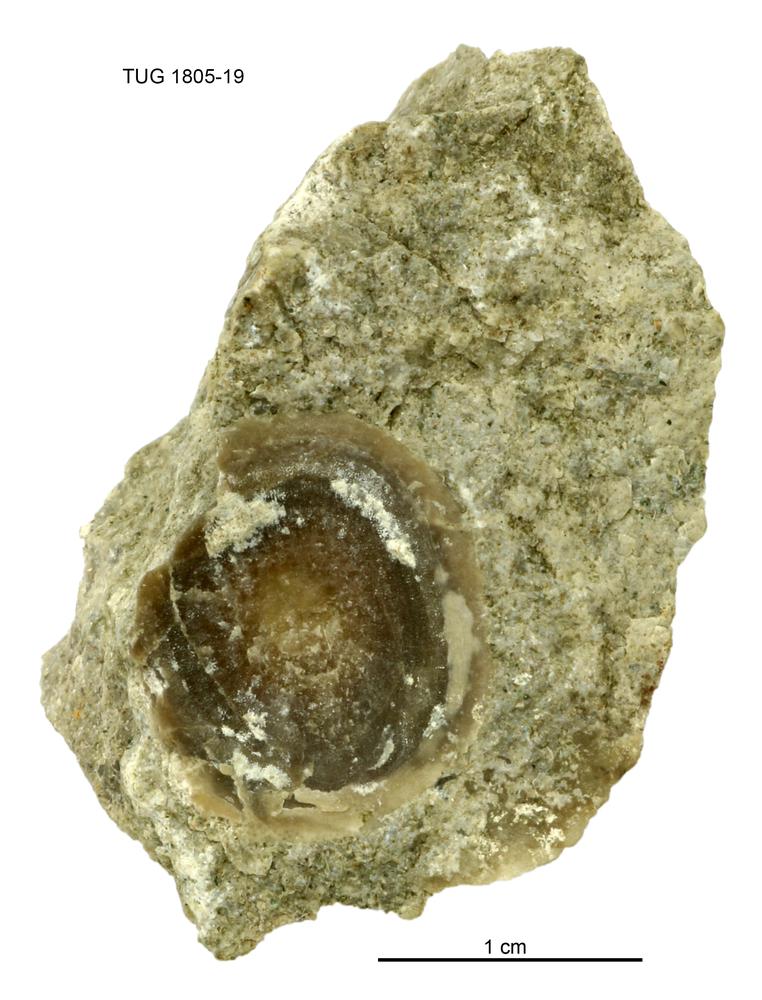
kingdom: Animalia
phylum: Mollusca
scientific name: Mollusca
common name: Mollusca
